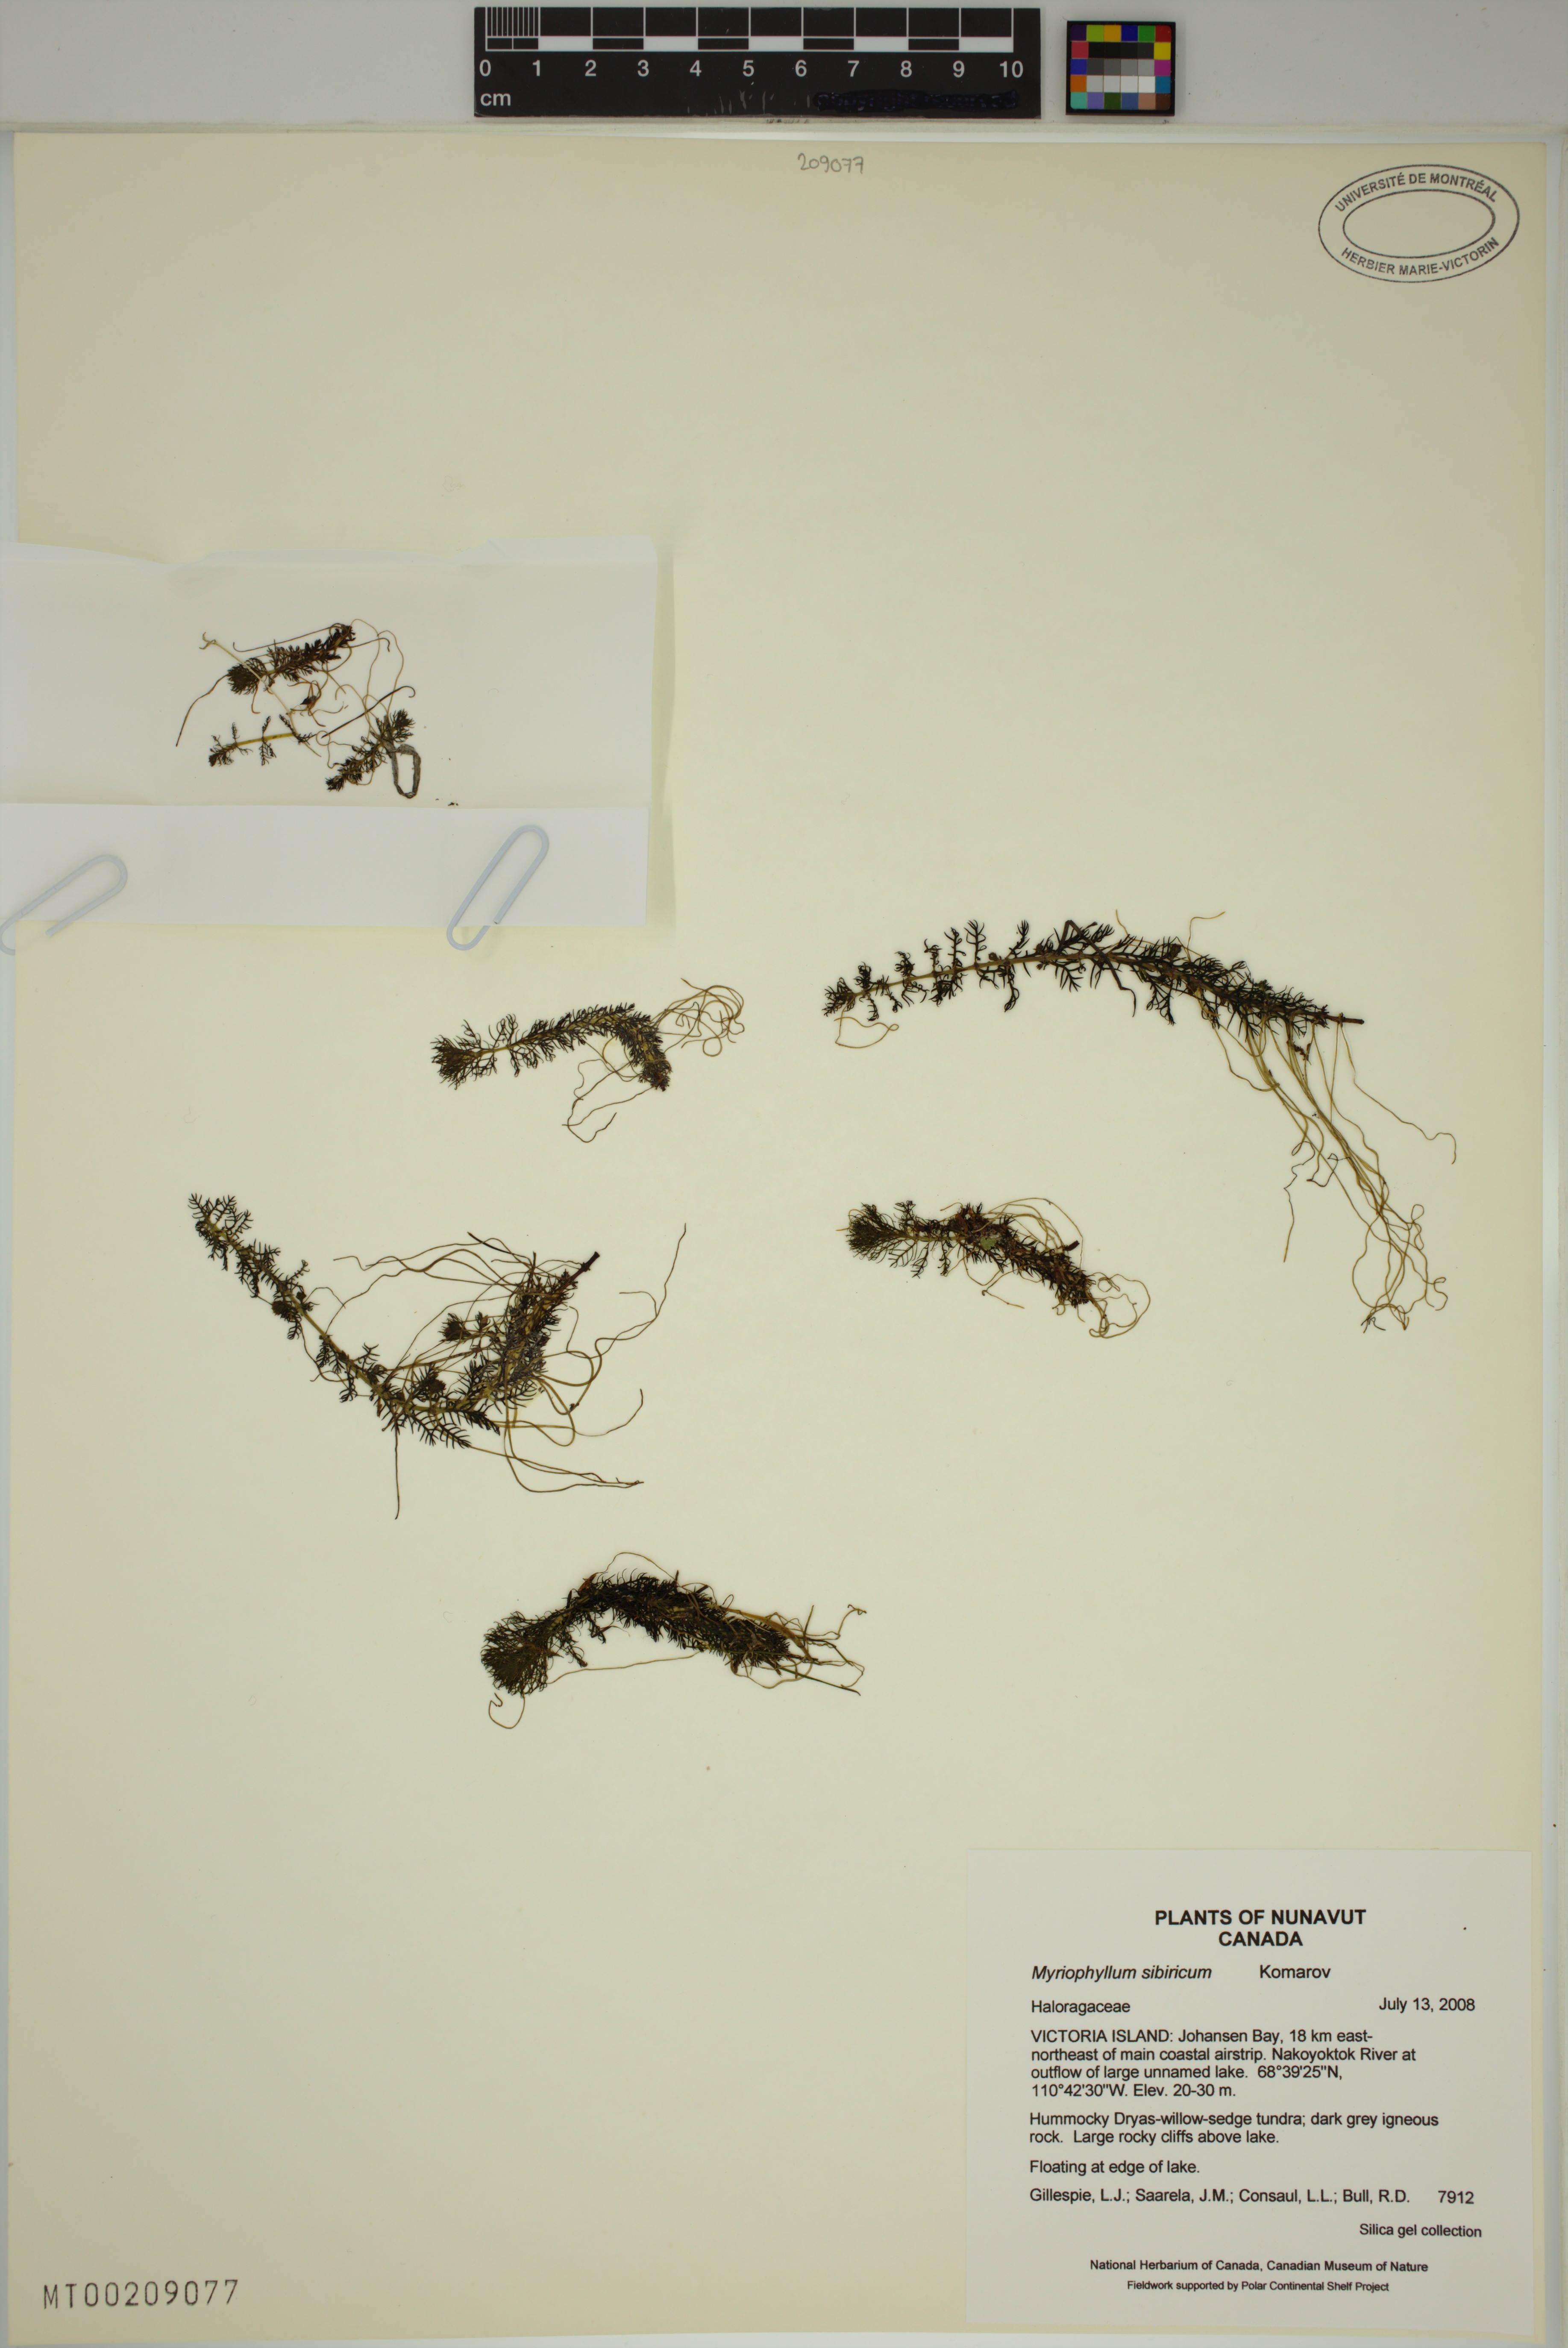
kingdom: Plantae
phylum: Tracheophyta
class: Magnoliopsida
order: Saxifragales
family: Haloragaceae
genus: Myriophyllum
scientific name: Myriophyllum sibiricum
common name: Siberian water-milfoil
